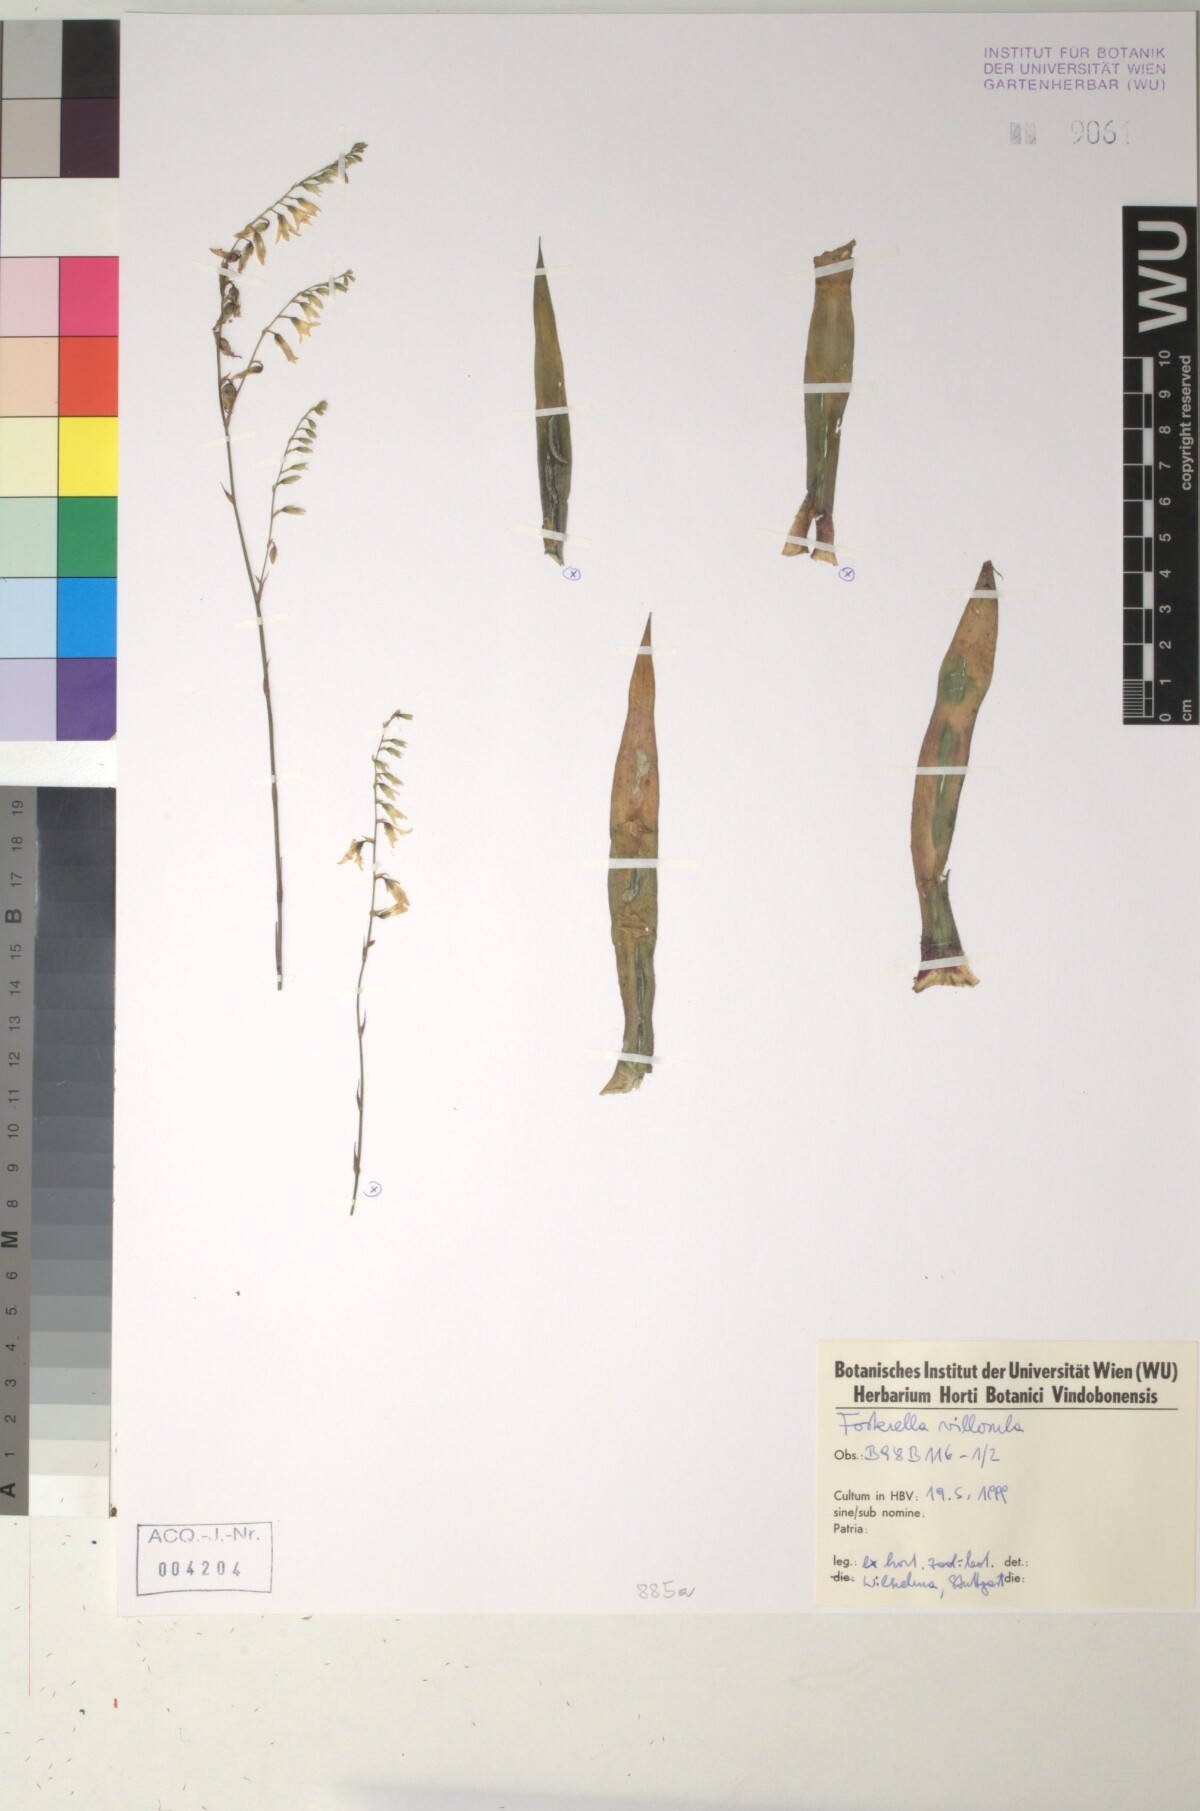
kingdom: Plantae
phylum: Tracheophyta
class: Liliopsida
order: Poales
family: Bromeliaceae
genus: Fosterella
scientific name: Fosterella penduliflora
